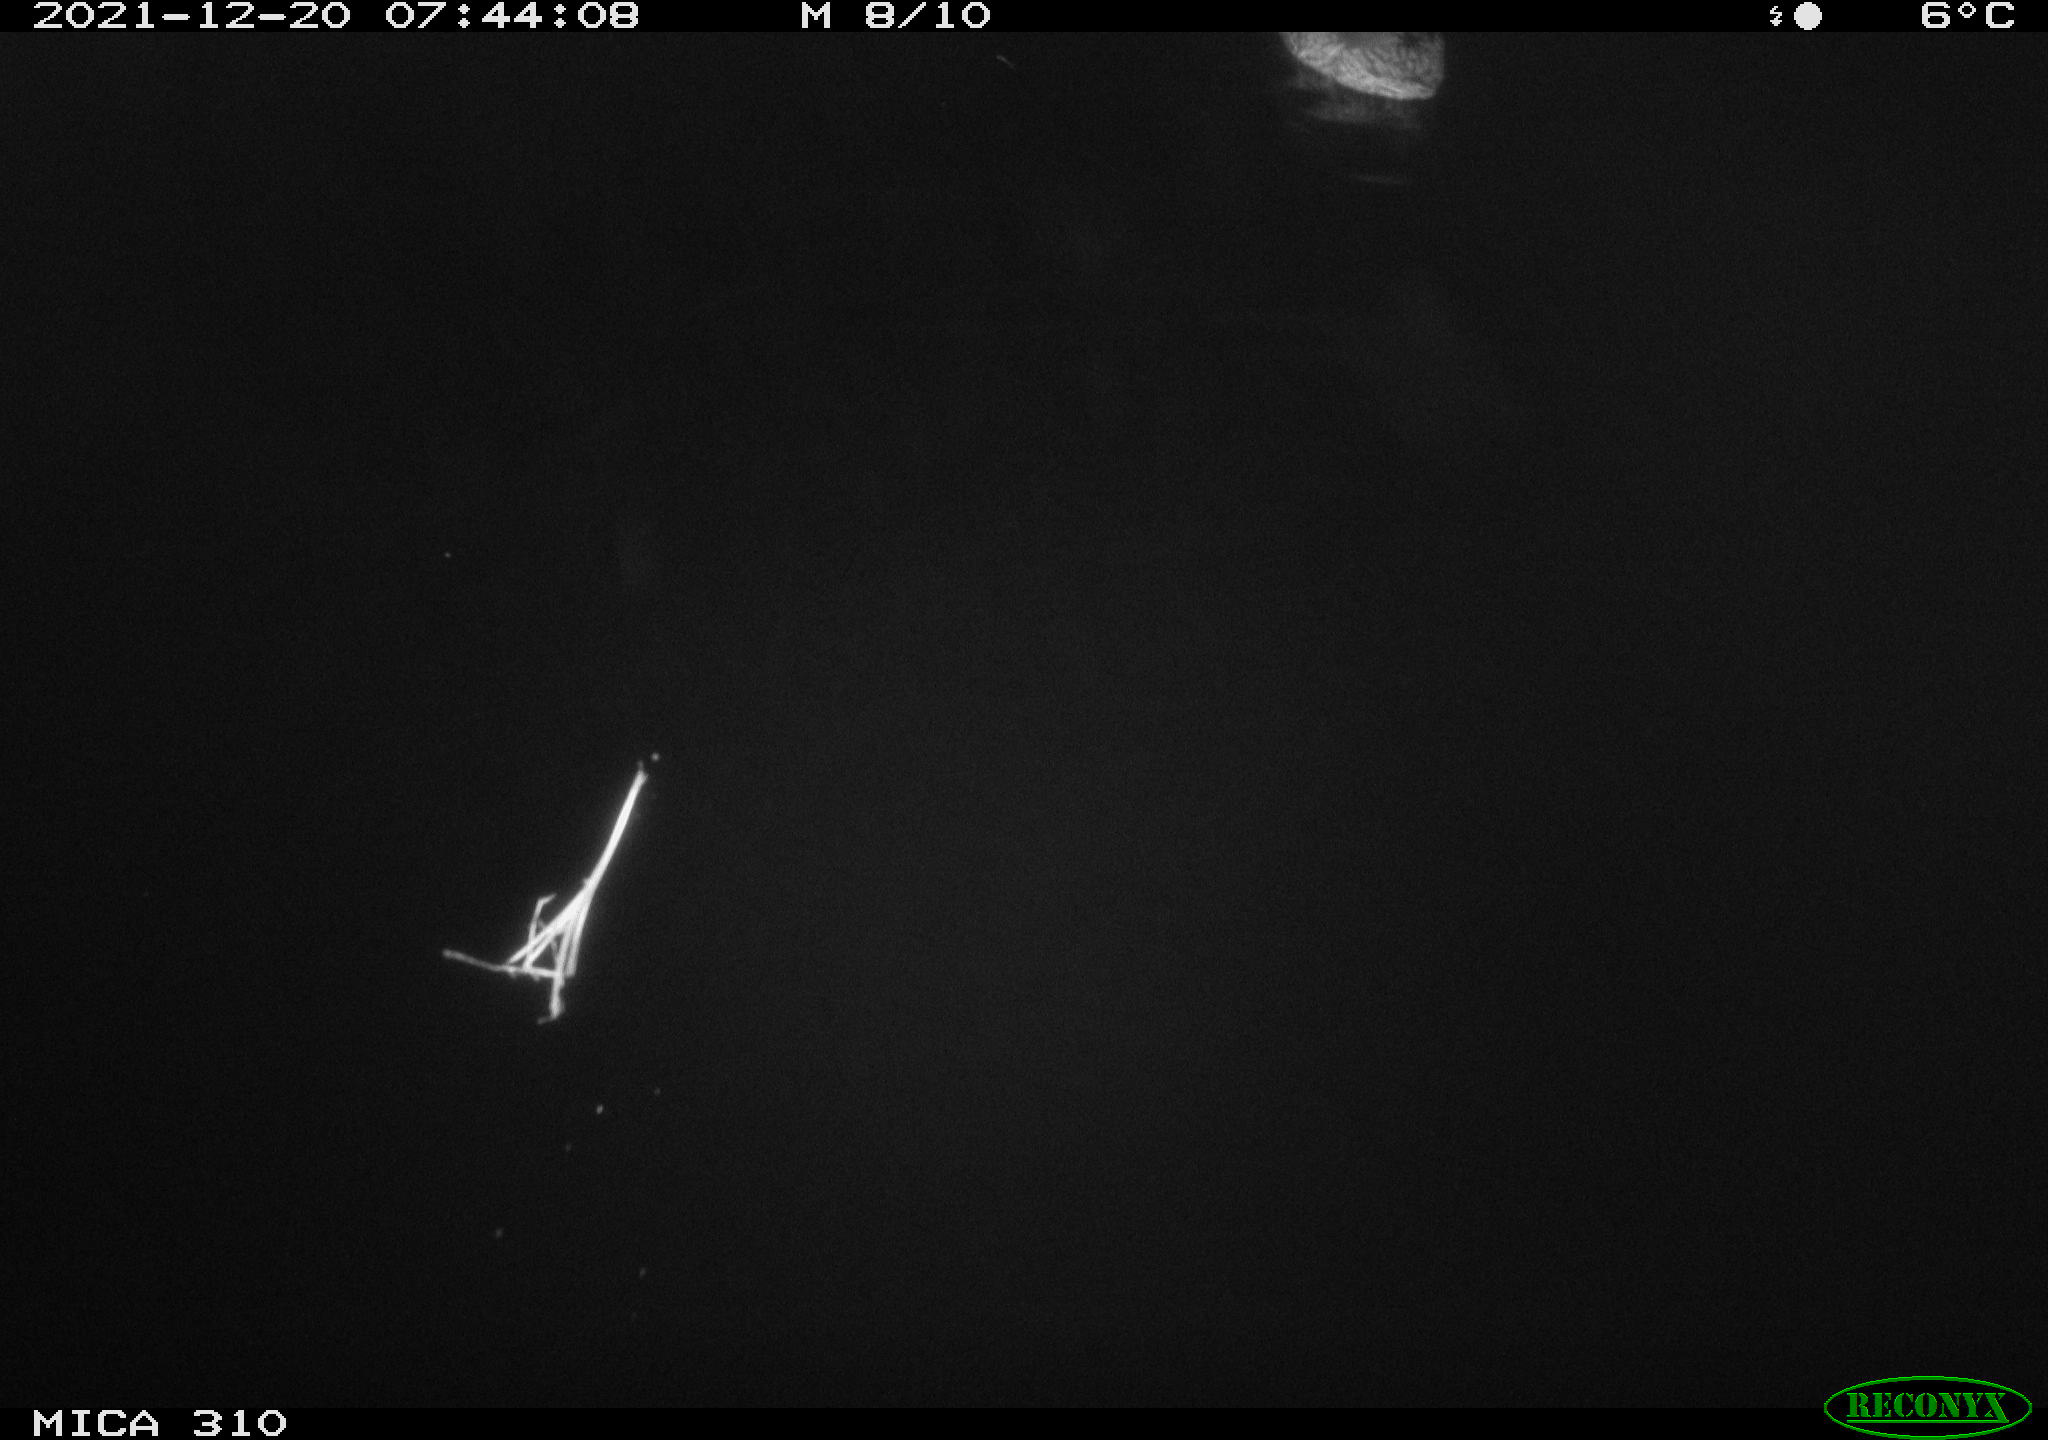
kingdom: Animalia
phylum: Chordata
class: Aves
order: Anseriformes
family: Anatidae
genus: Anas
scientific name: Anas platyrhynchos
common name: Mallard
